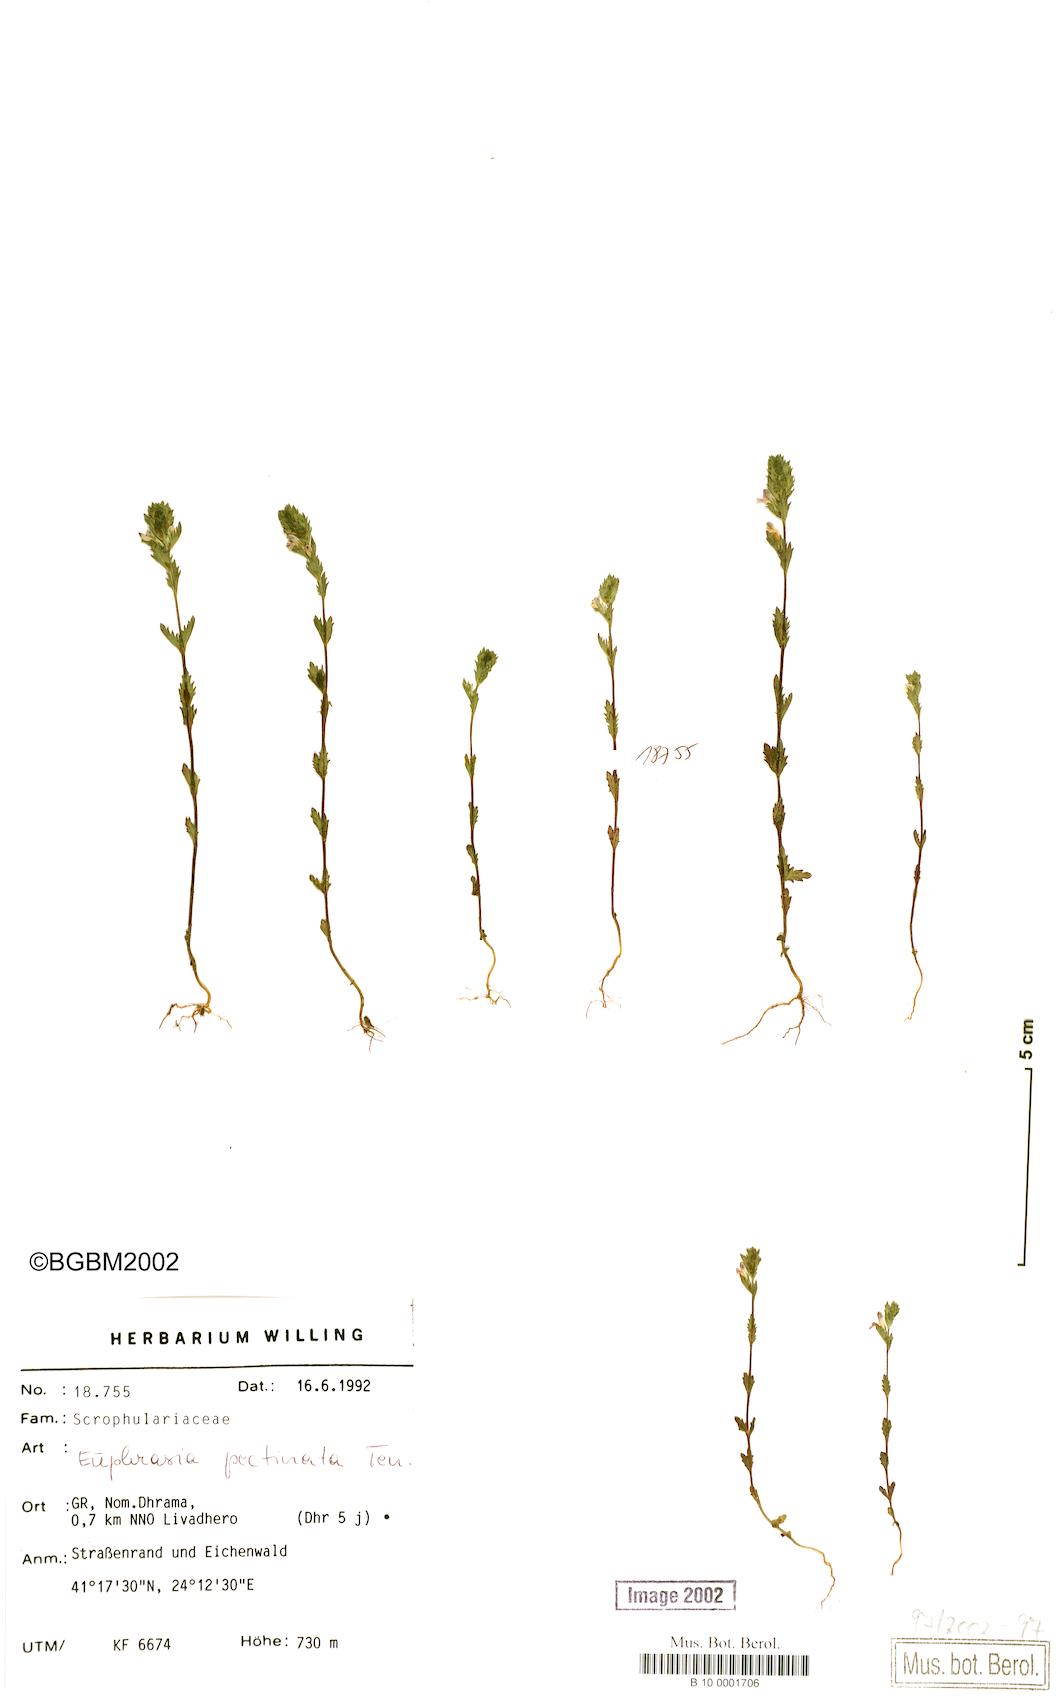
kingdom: Plantae
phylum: Tracheophyta
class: Magnoliopsida
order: Lamiales
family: Orobanchaceae
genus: Euphrasia
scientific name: Euphrasia pectinata
